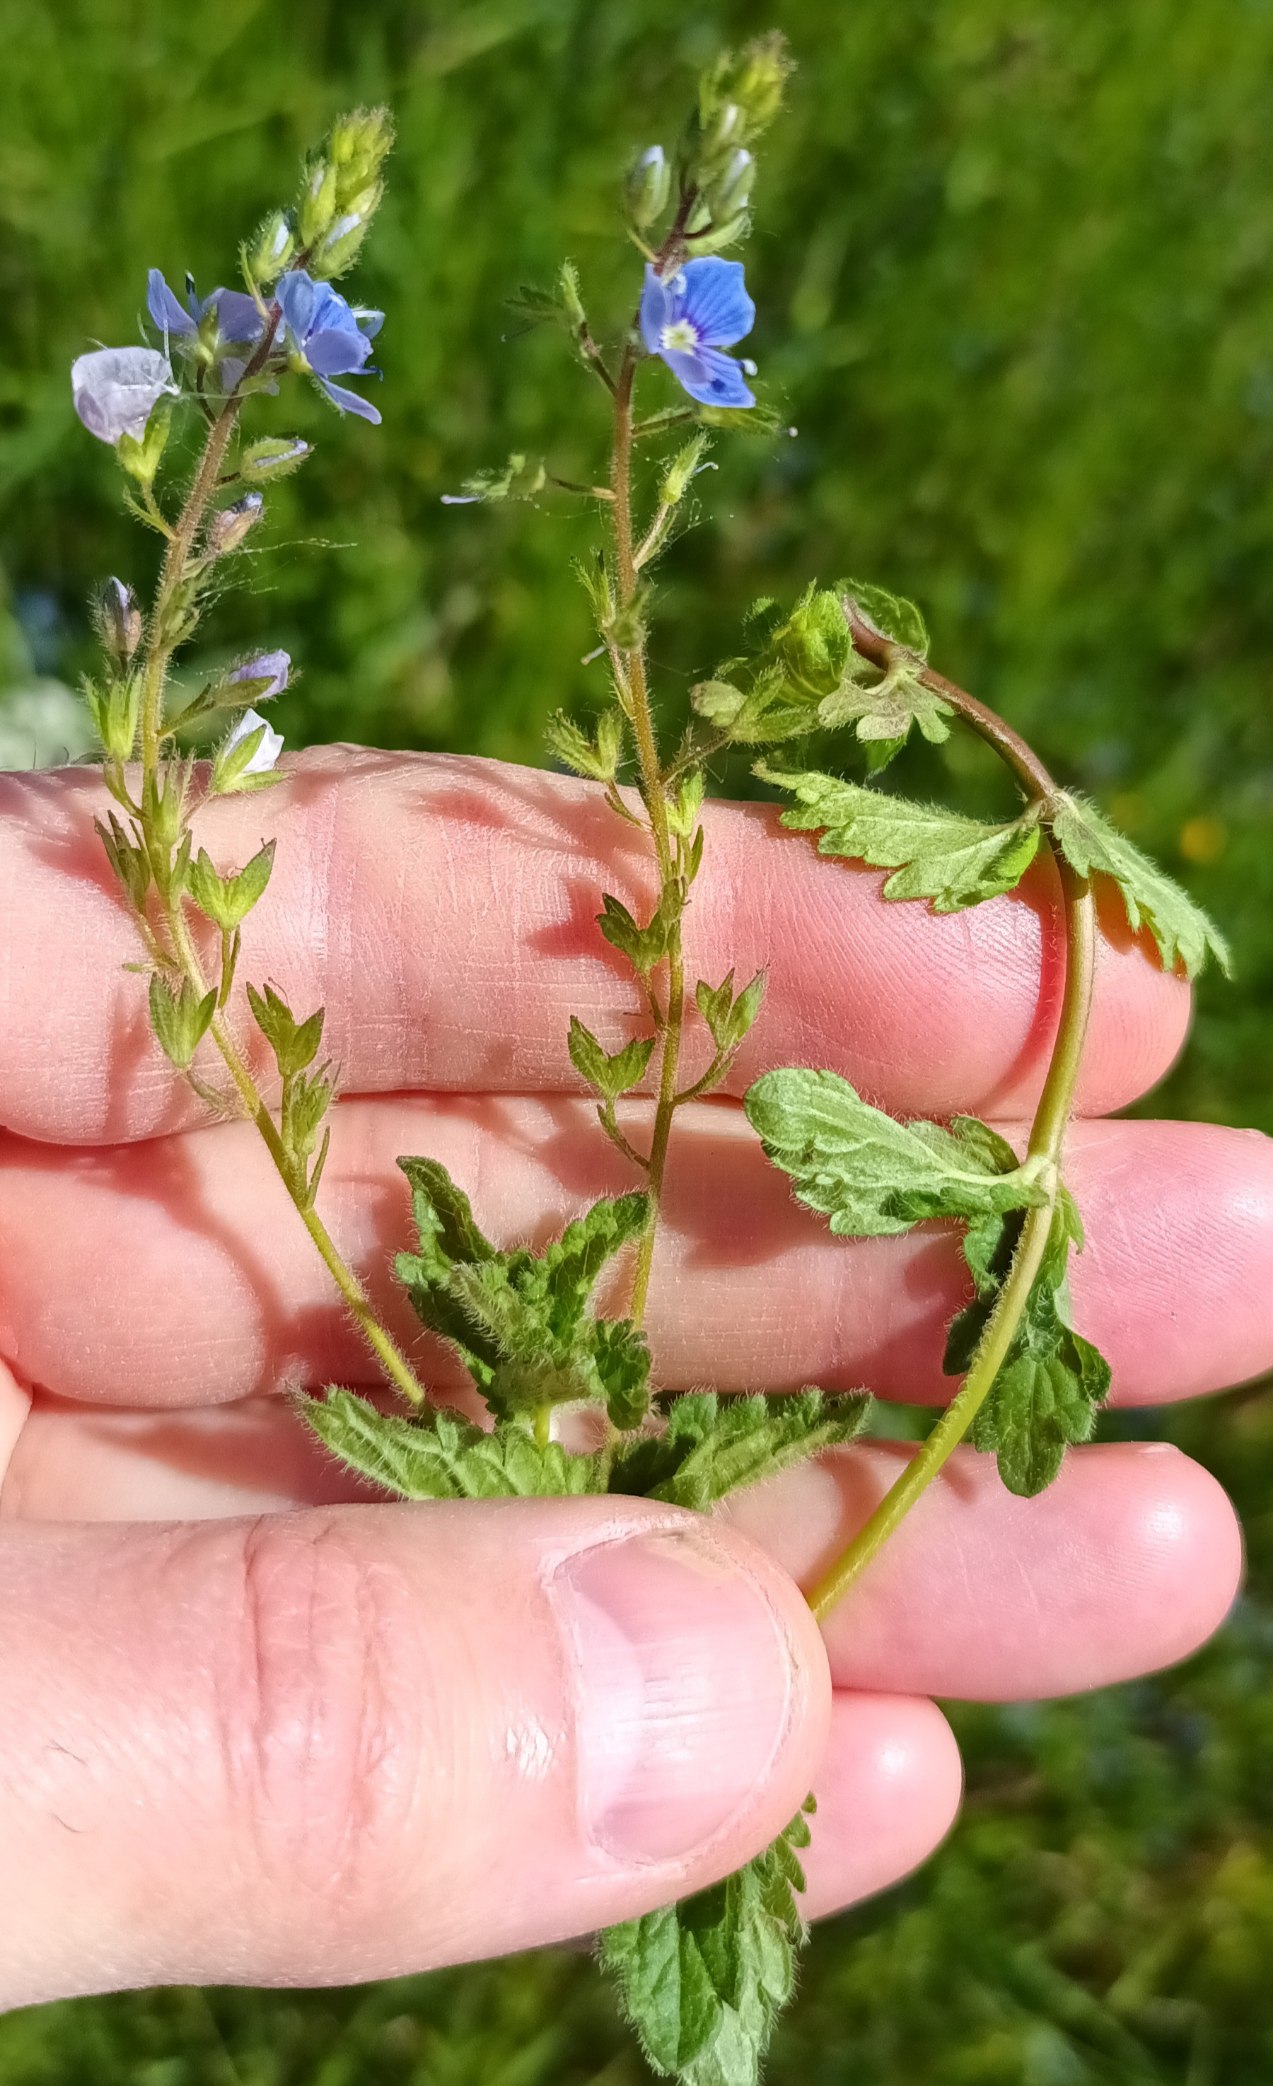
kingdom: Plantae
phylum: Tracheophyta
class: Magnoliopsida
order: Lamiales
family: Plantaginaceae
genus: Veronica
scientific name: Veronica chamaedrys
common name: Tveskægget ærenpris
